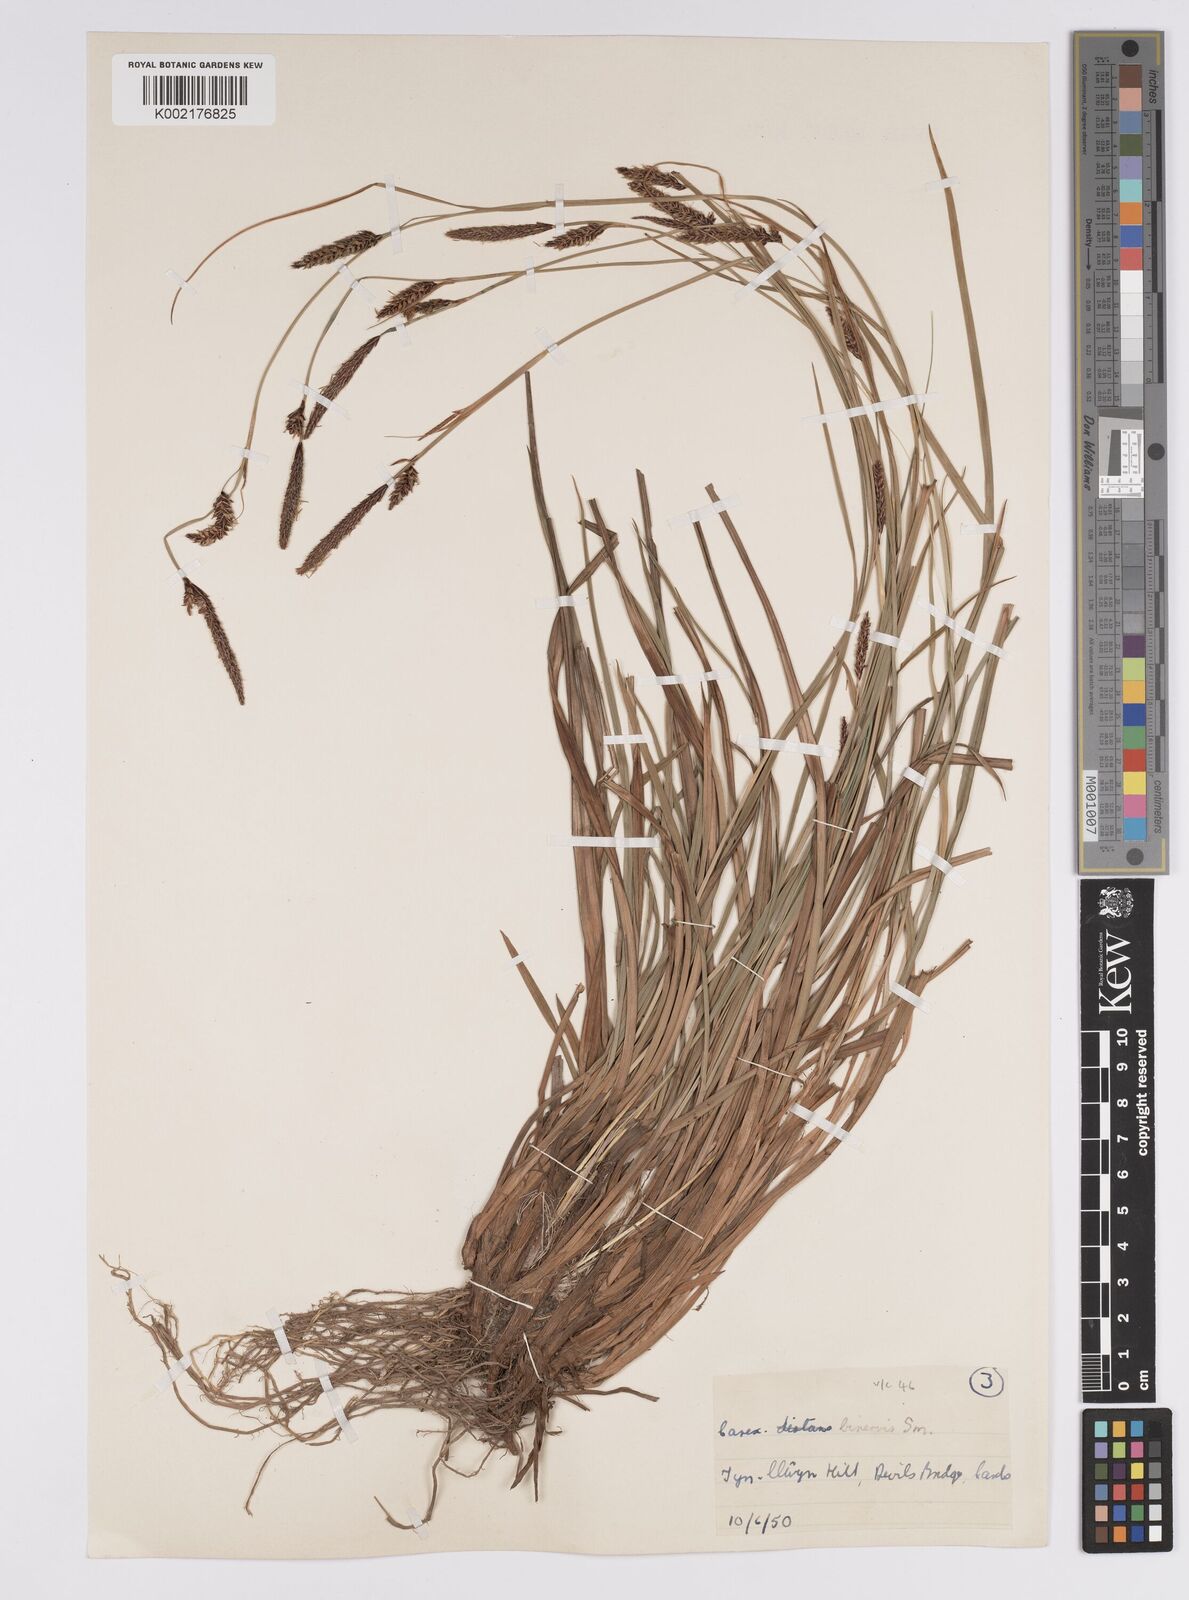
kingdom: Plantae
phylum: Tracheophyta
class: Liliopsida
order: Poales
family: Cyperaceae
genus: Carex
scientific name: Carex binervis
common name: Green-ribbed sedge
